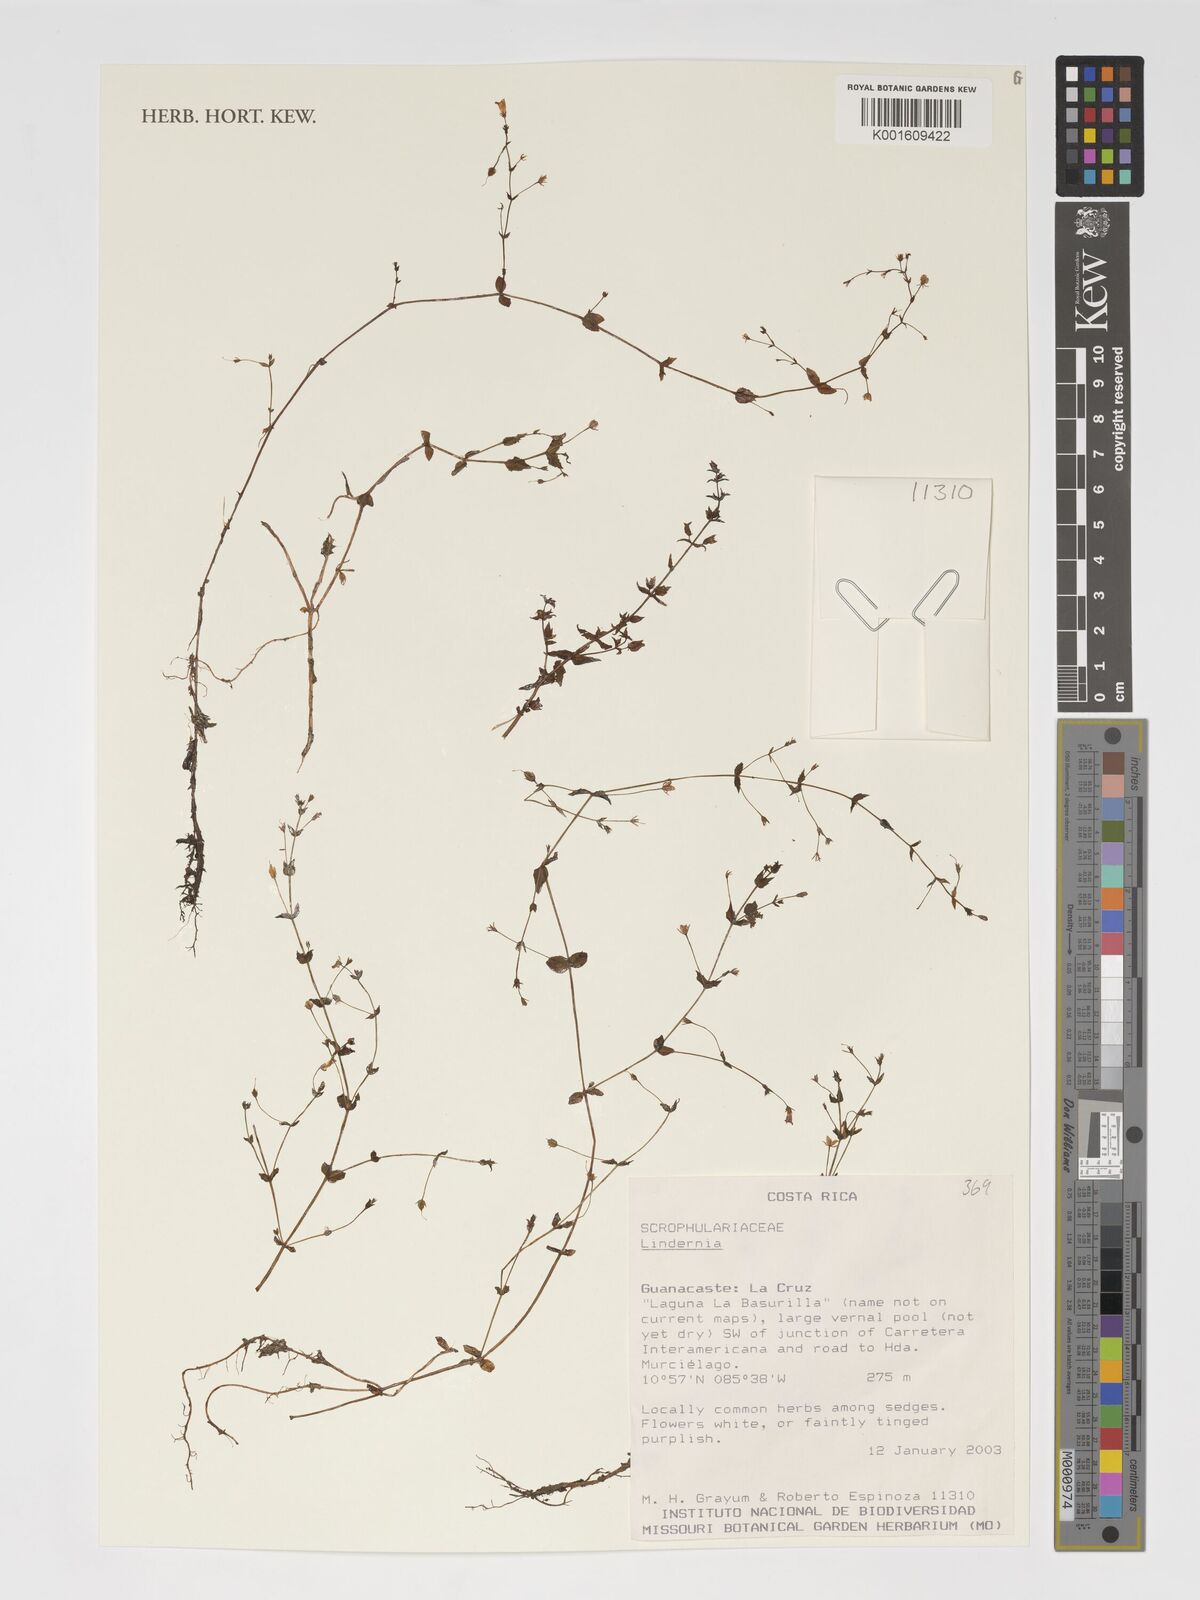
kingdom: Plantae
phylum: Tracheophyta
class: Magnoliopsida
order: Lamiales
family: Linderniaceae
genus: Lindernia
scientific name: Lindernia
